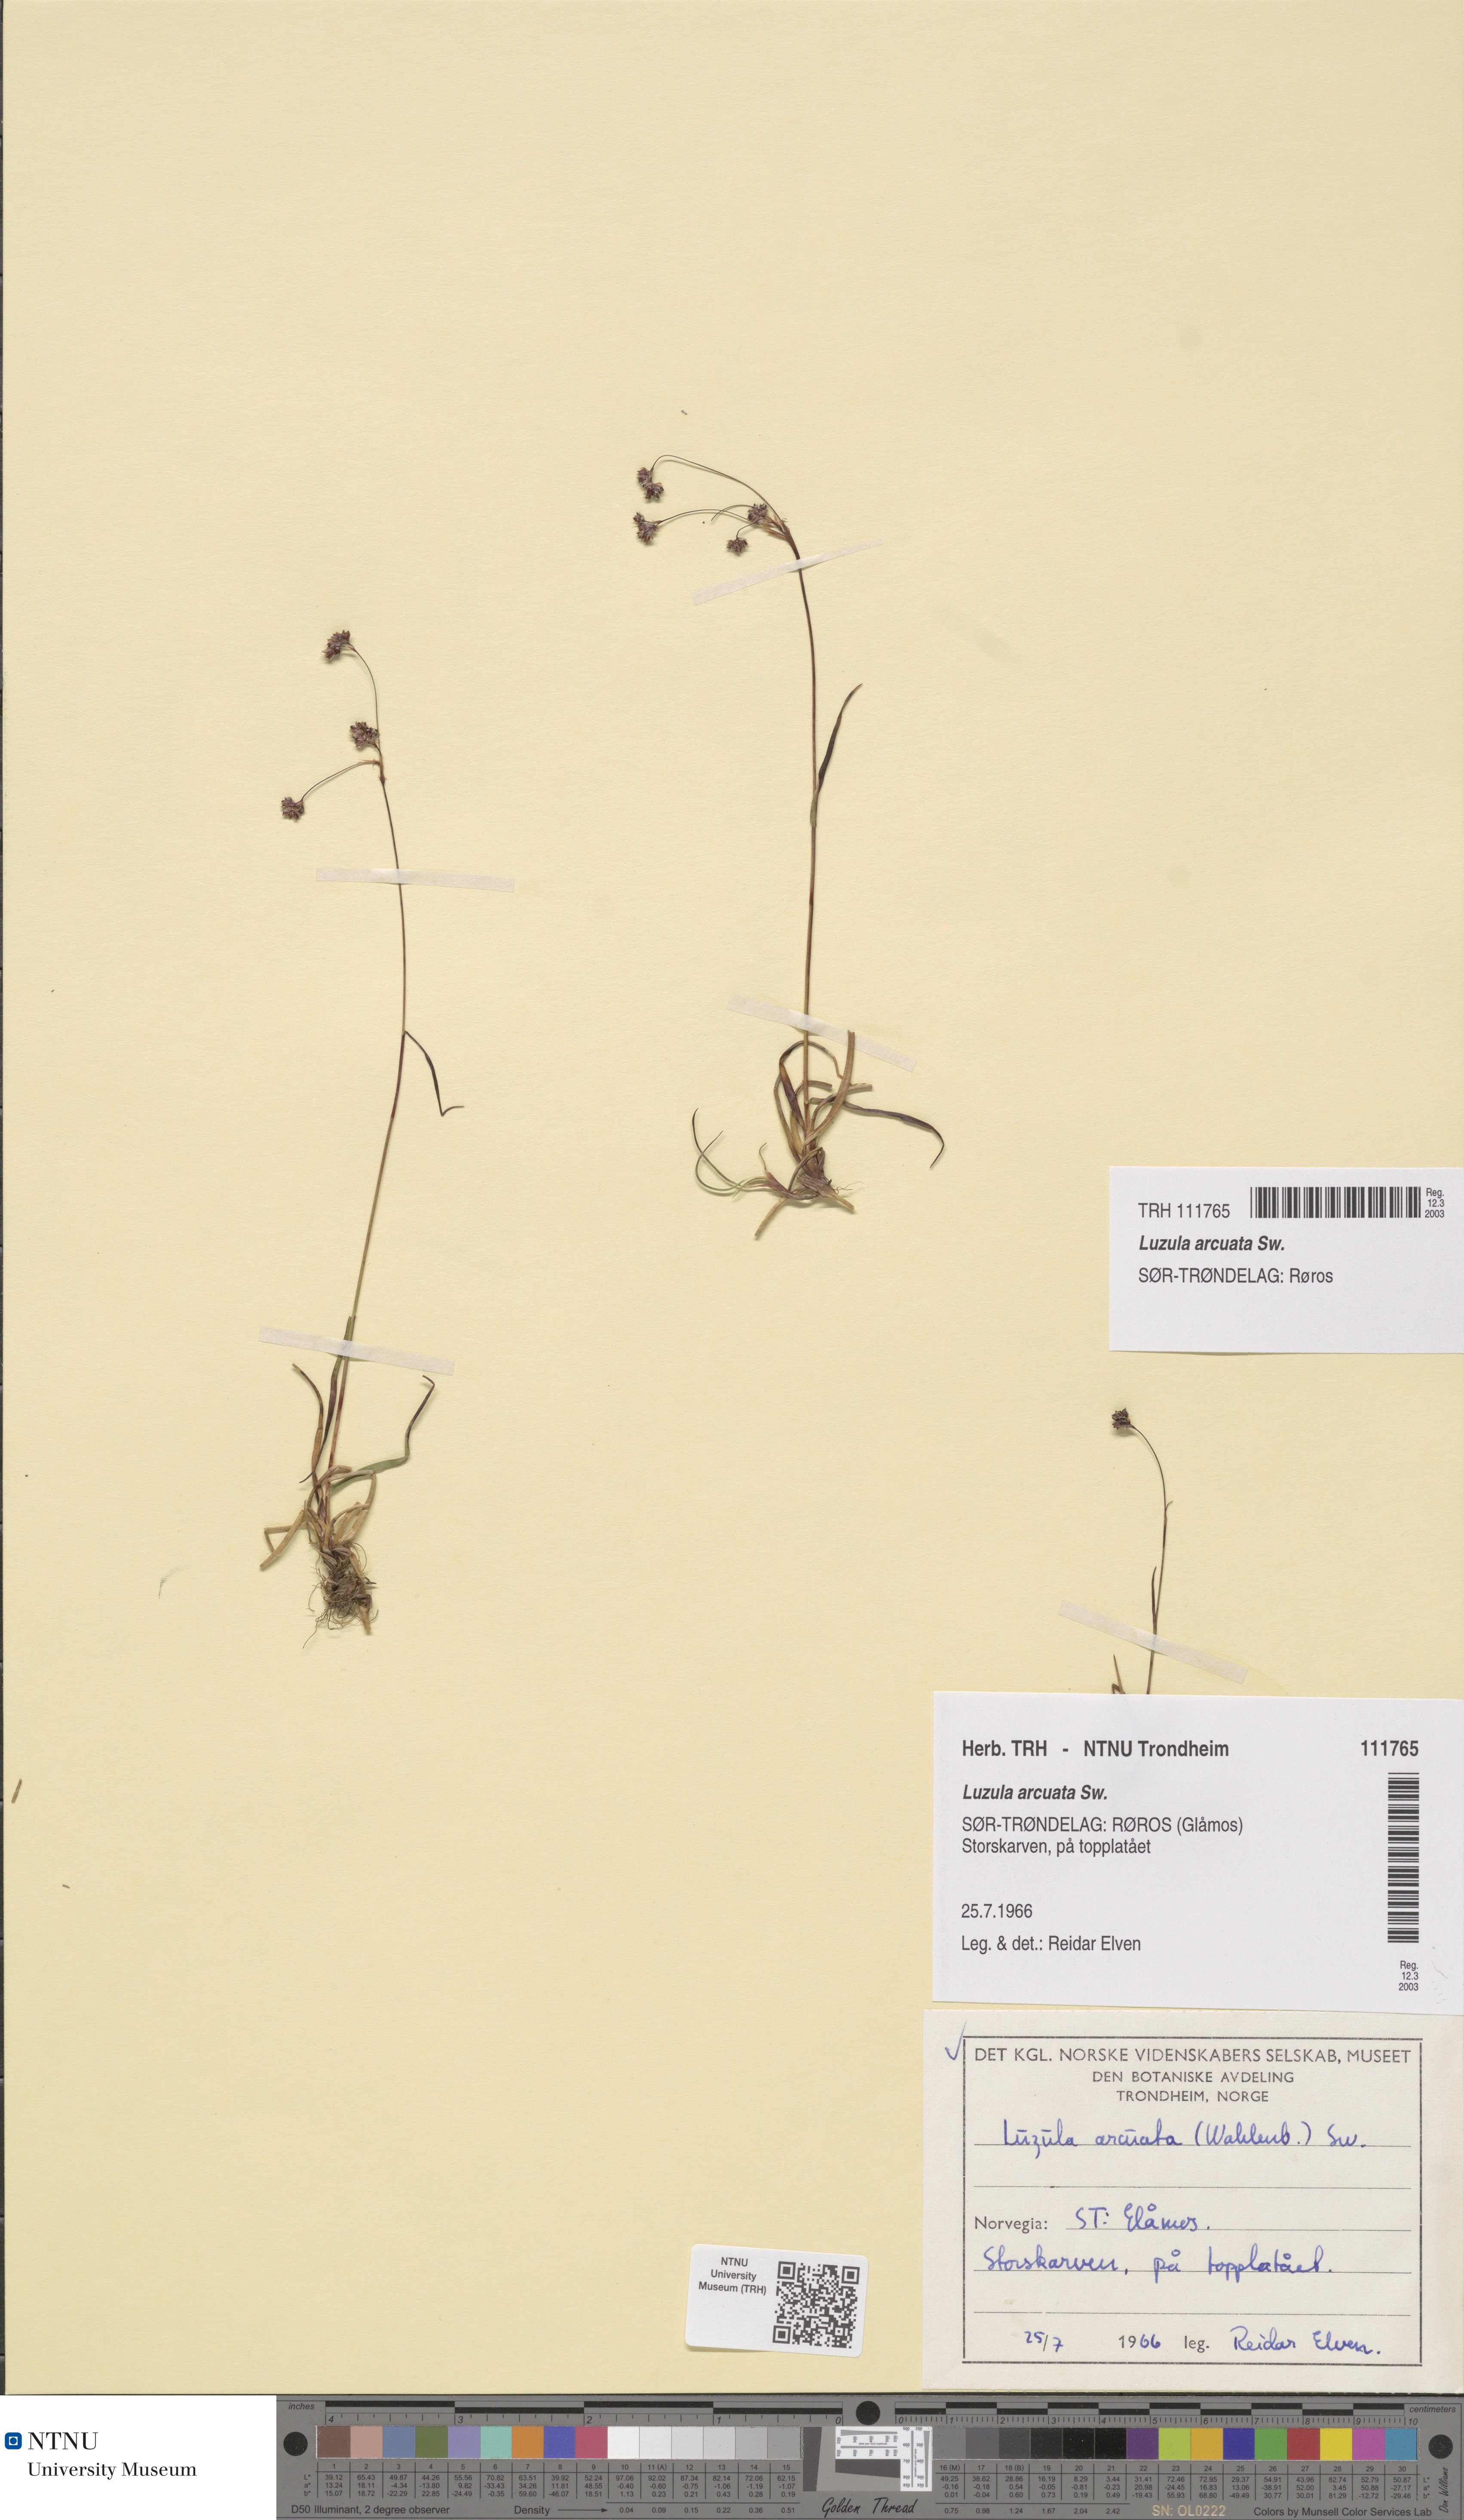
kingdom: Plantae
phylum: Tracheophyta
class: Liliopsida
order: Poales
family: Juncaceae
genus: Luzula
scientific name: Luzula arcuata
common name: Curved wood-rush
